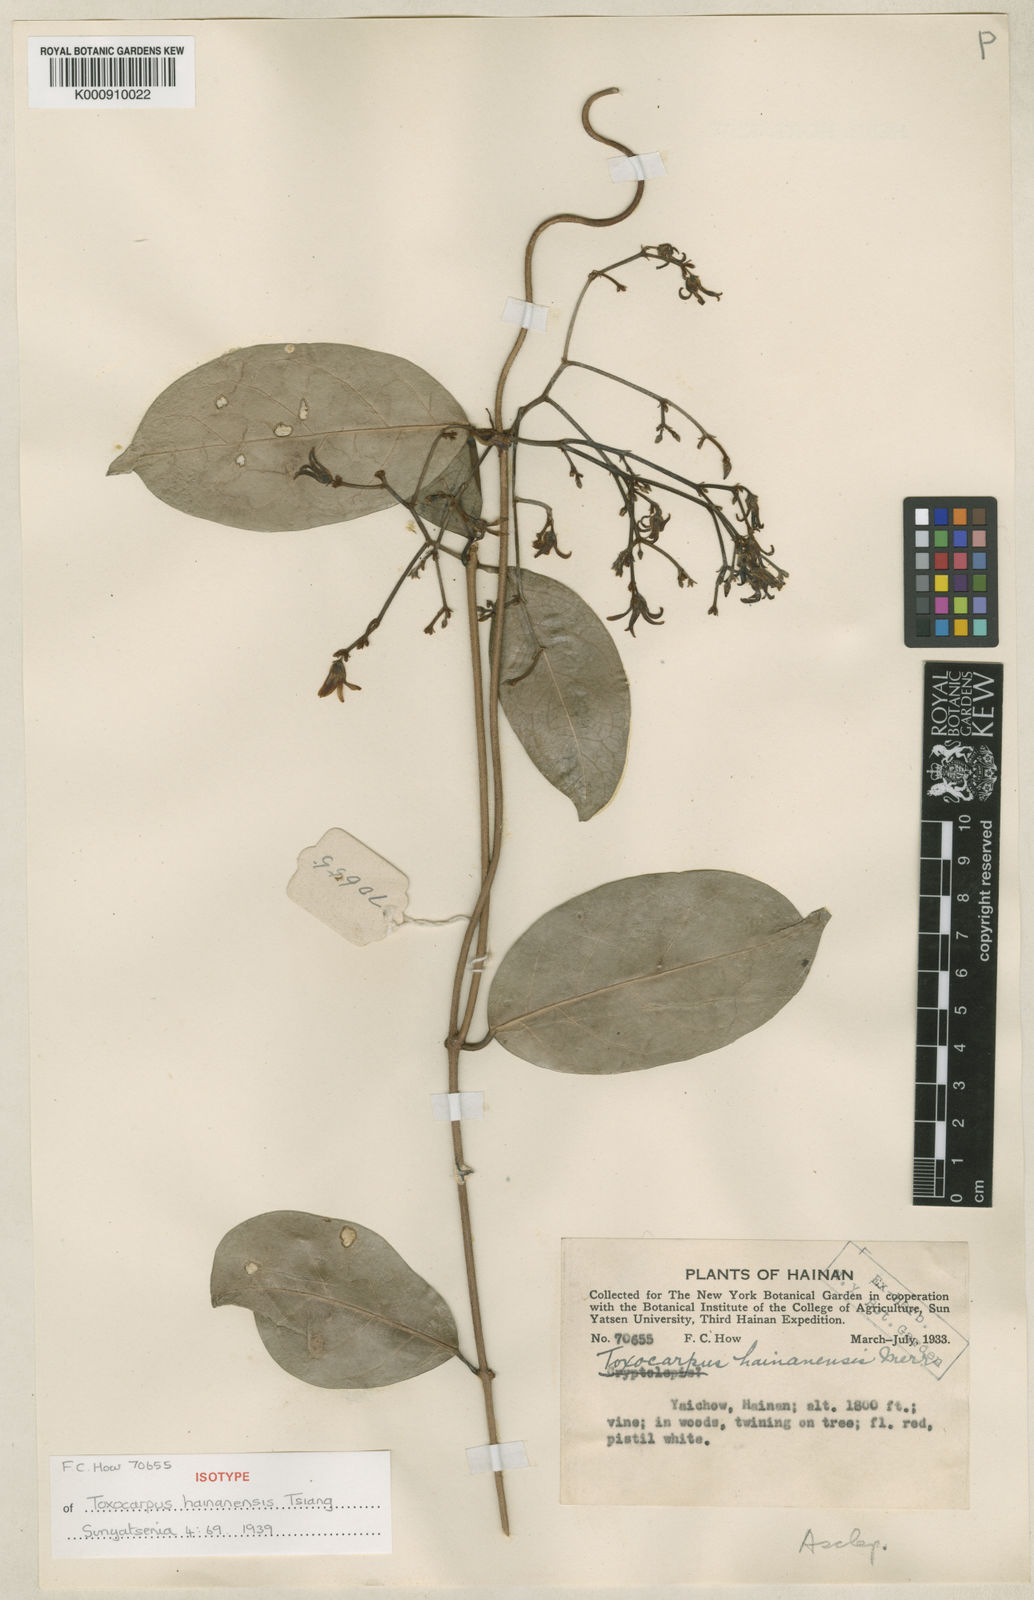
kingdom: Plantae
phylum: Tracheophyta
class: Magnoliopsida
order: Gentianales
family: Apocynaceae
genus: Toxocarpus
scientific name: Toxocarpus hainanensis
